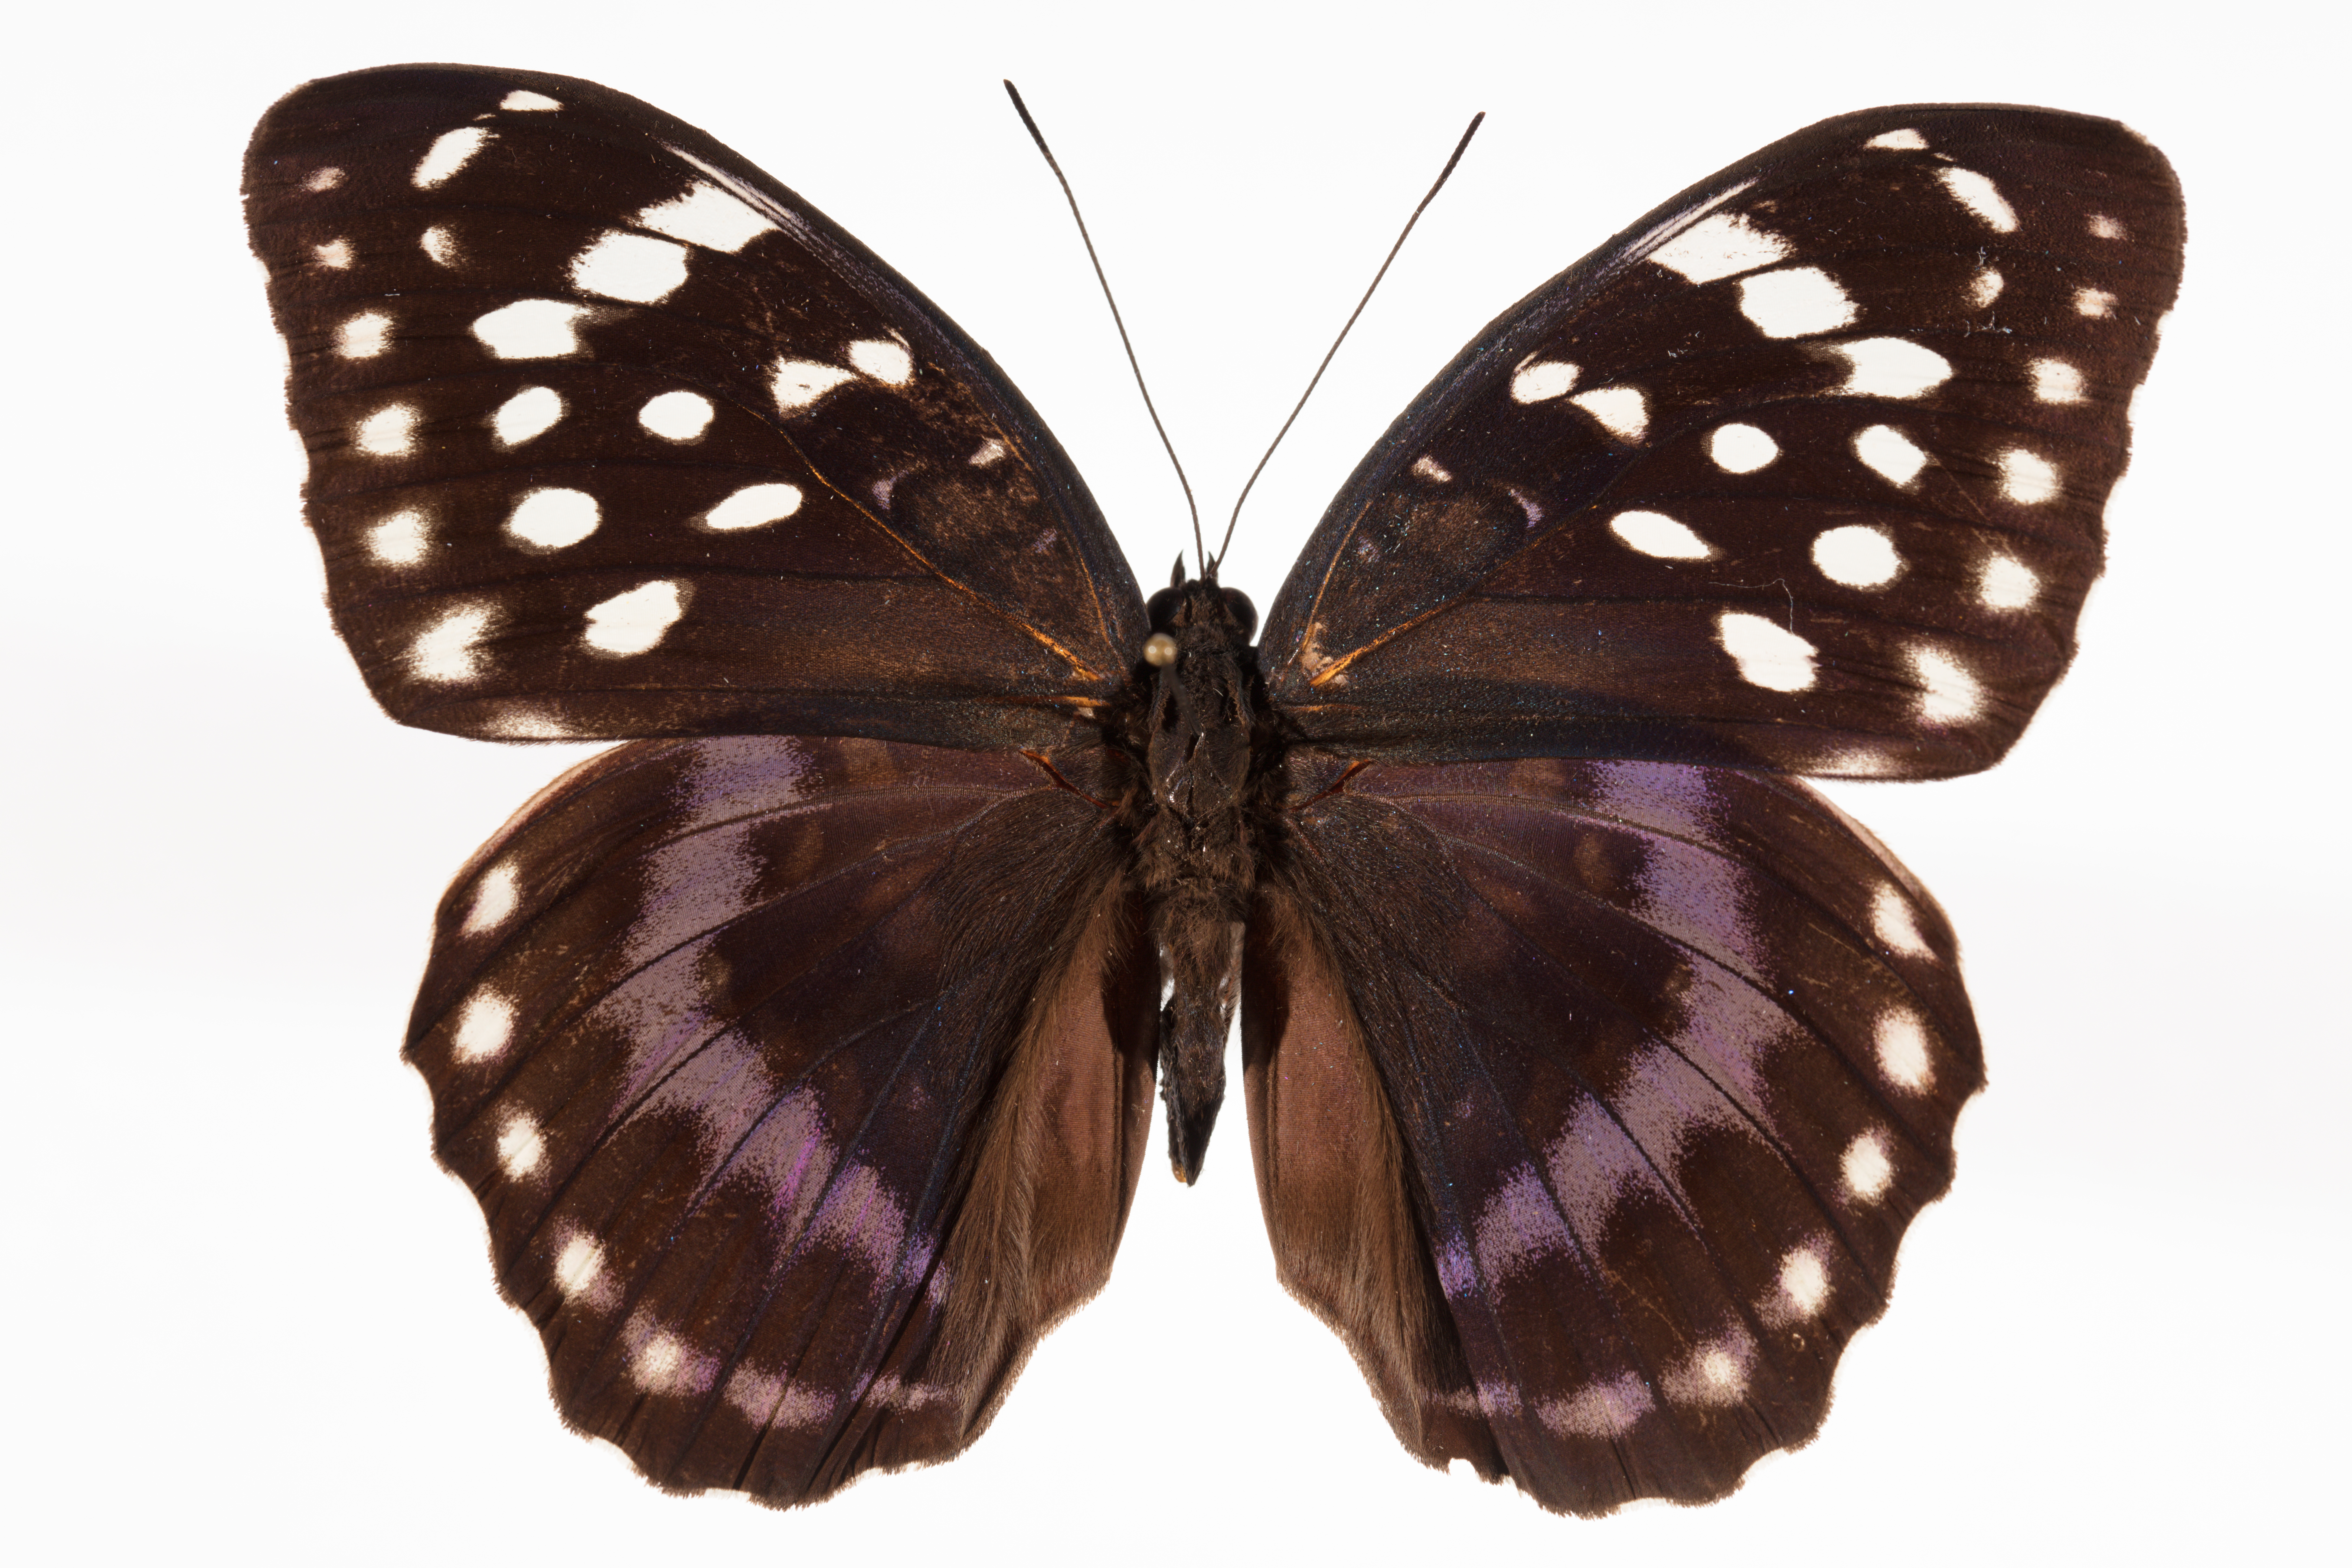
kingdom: Animalia
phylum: Arthropoda
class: Insecta
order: Lepidoptera
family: Nymphalidae
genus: Lexias
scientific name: Lexias satrapes
